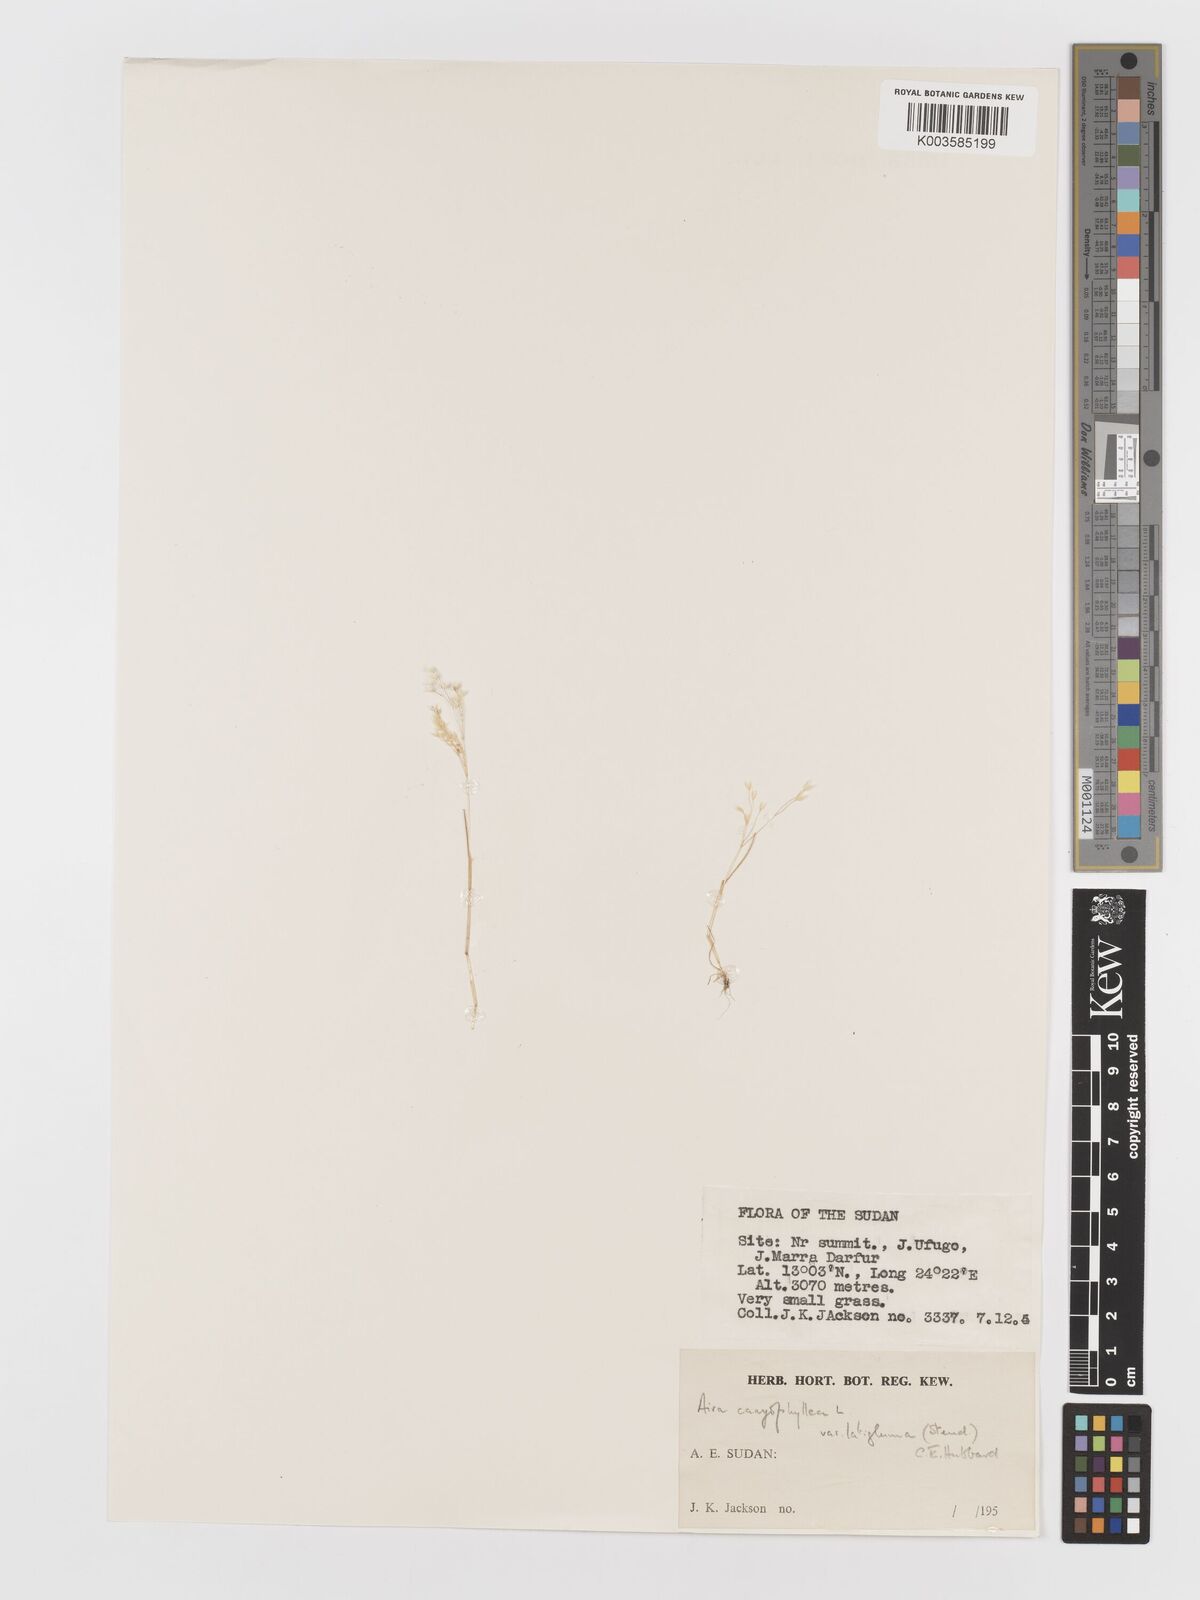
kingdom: Plantae
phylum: Tracheophyta
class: Liliopsida
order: Poales
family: Poaceae
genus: Aira
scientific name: Aira cupaniana
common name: Silver hairgrass
